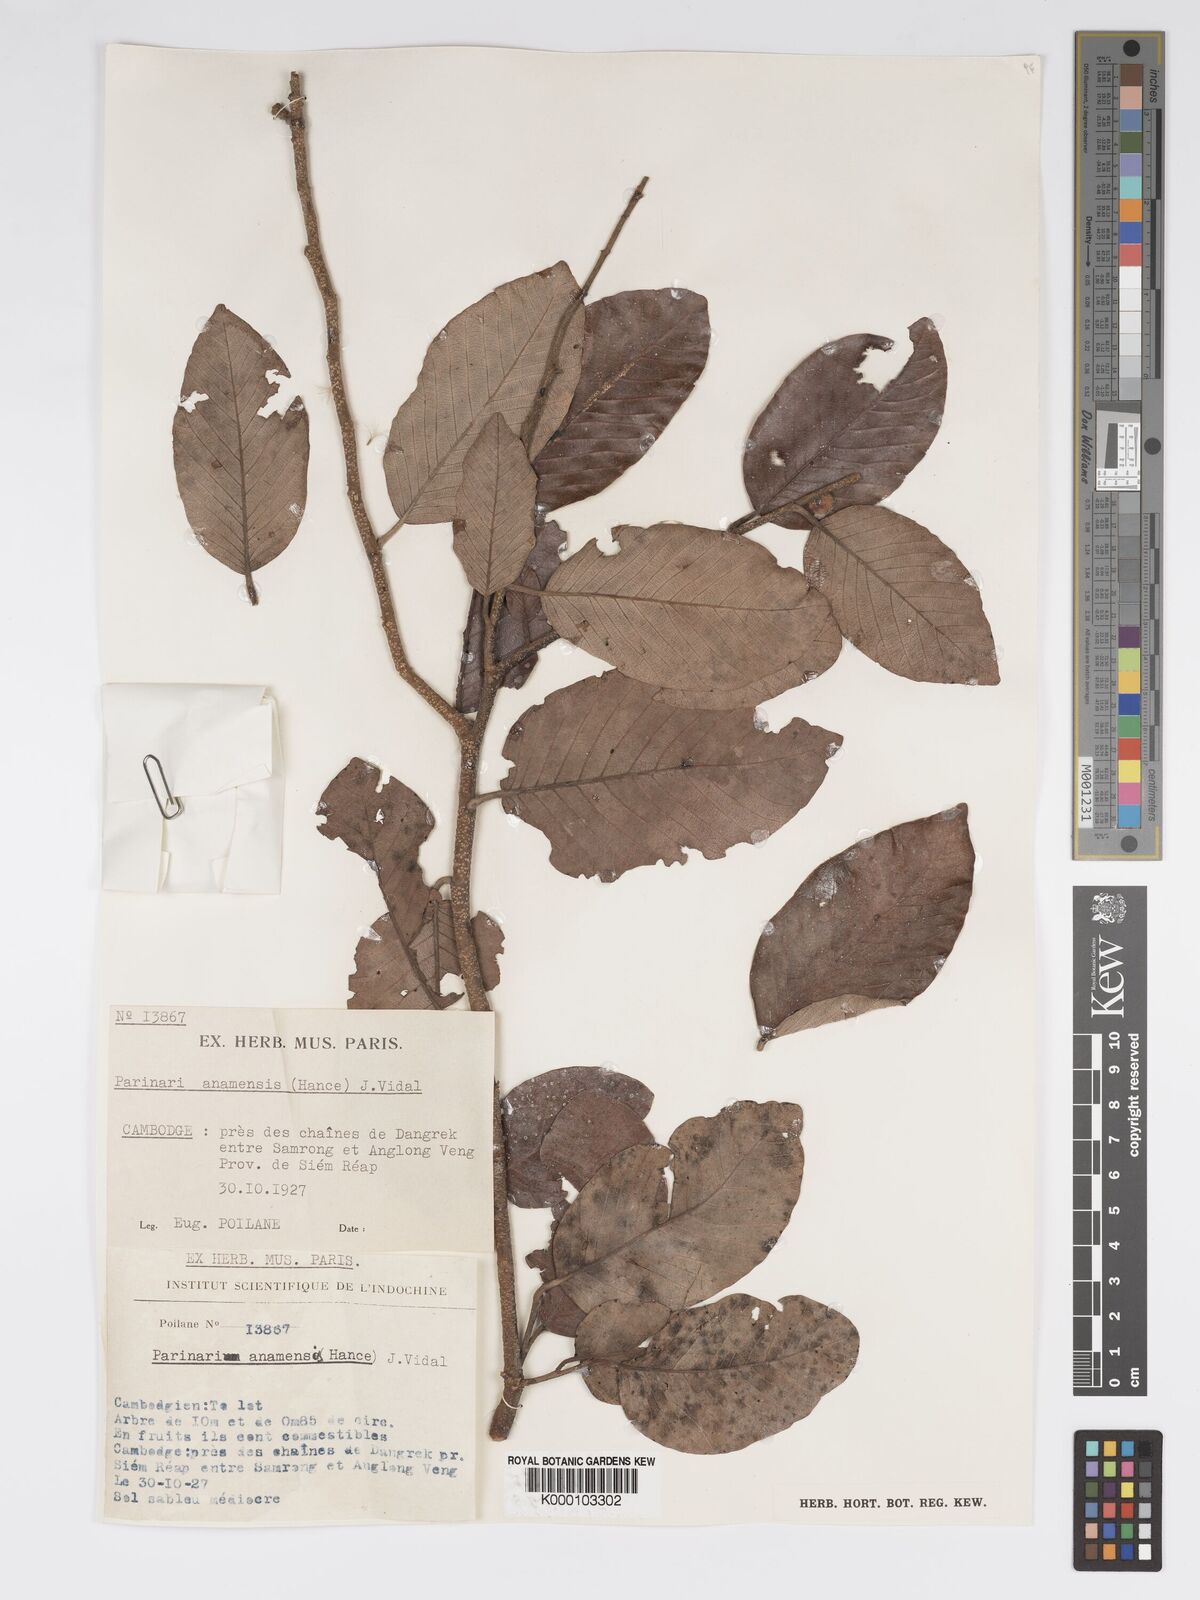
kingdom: Plantae
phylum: Tracheophyta
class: Magnoliopsida
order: Malpighiales
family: Chrysobalanaceae
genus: Parinari
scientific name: Parinari anamensis
